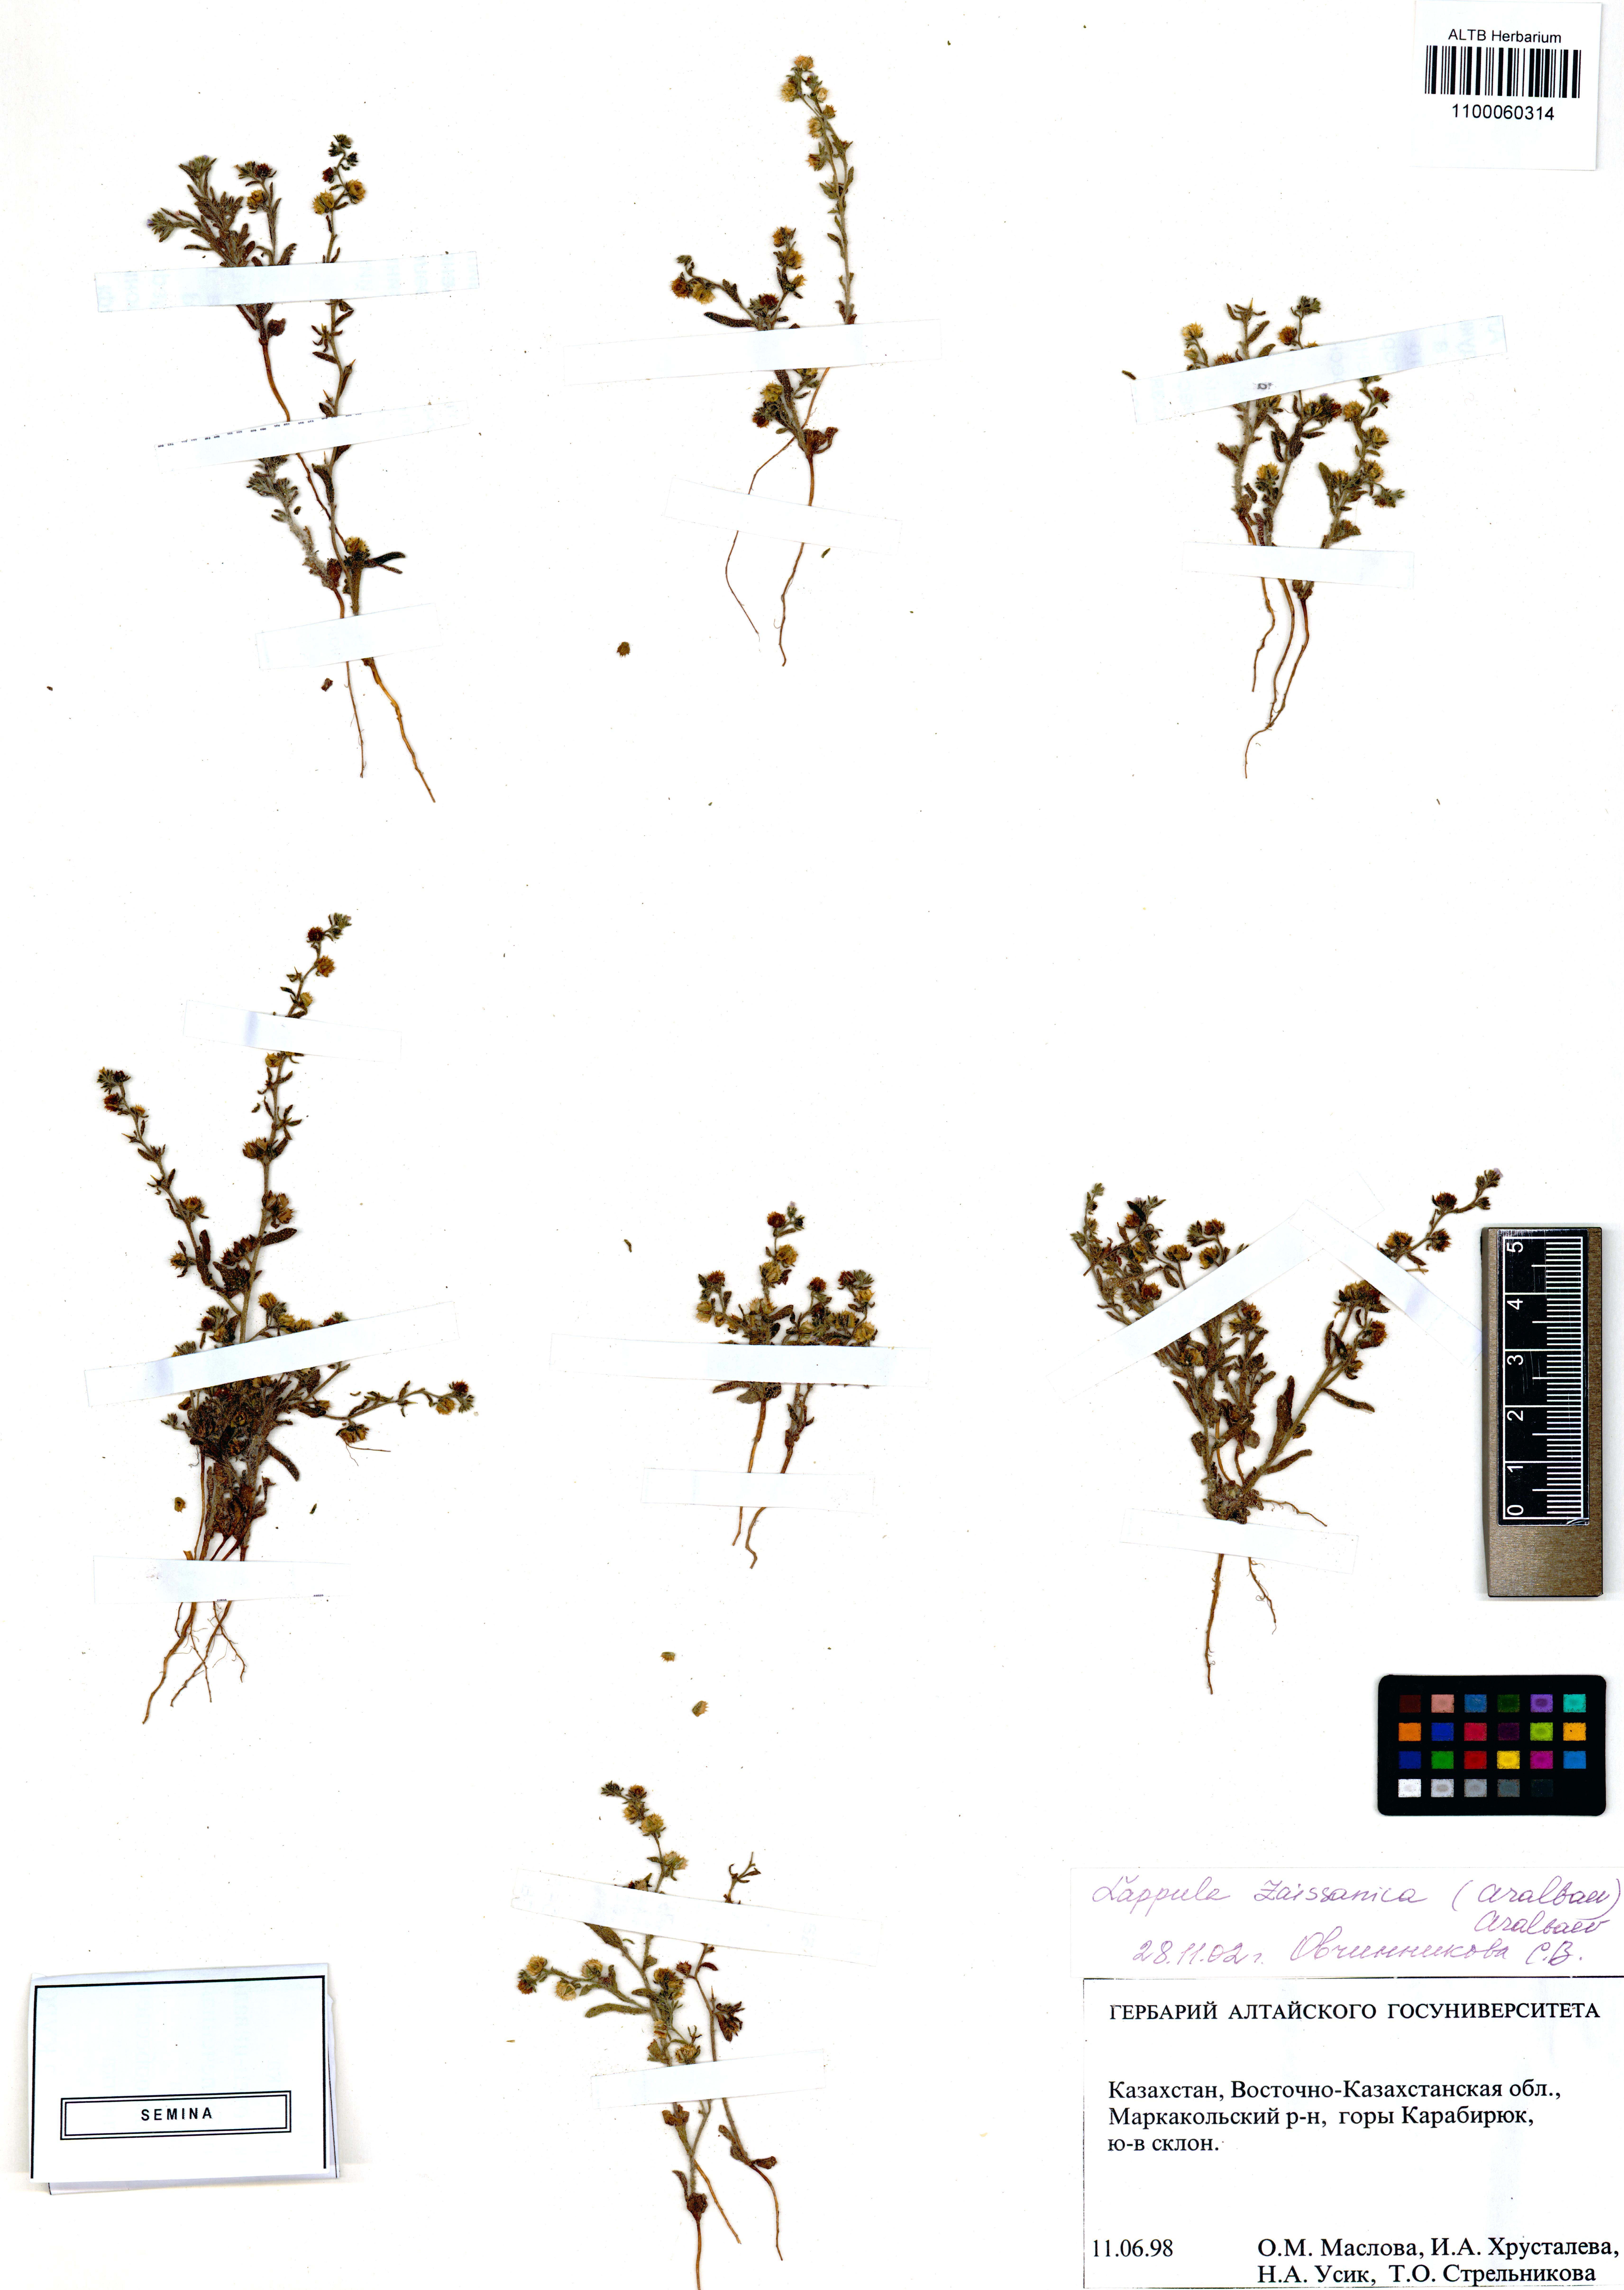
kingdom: Plantae
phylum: Tracheophyta
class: Magnoliopsida
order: Boraginales
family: Boraginaceae
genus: Lappula
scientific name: Lappula zaissanica
